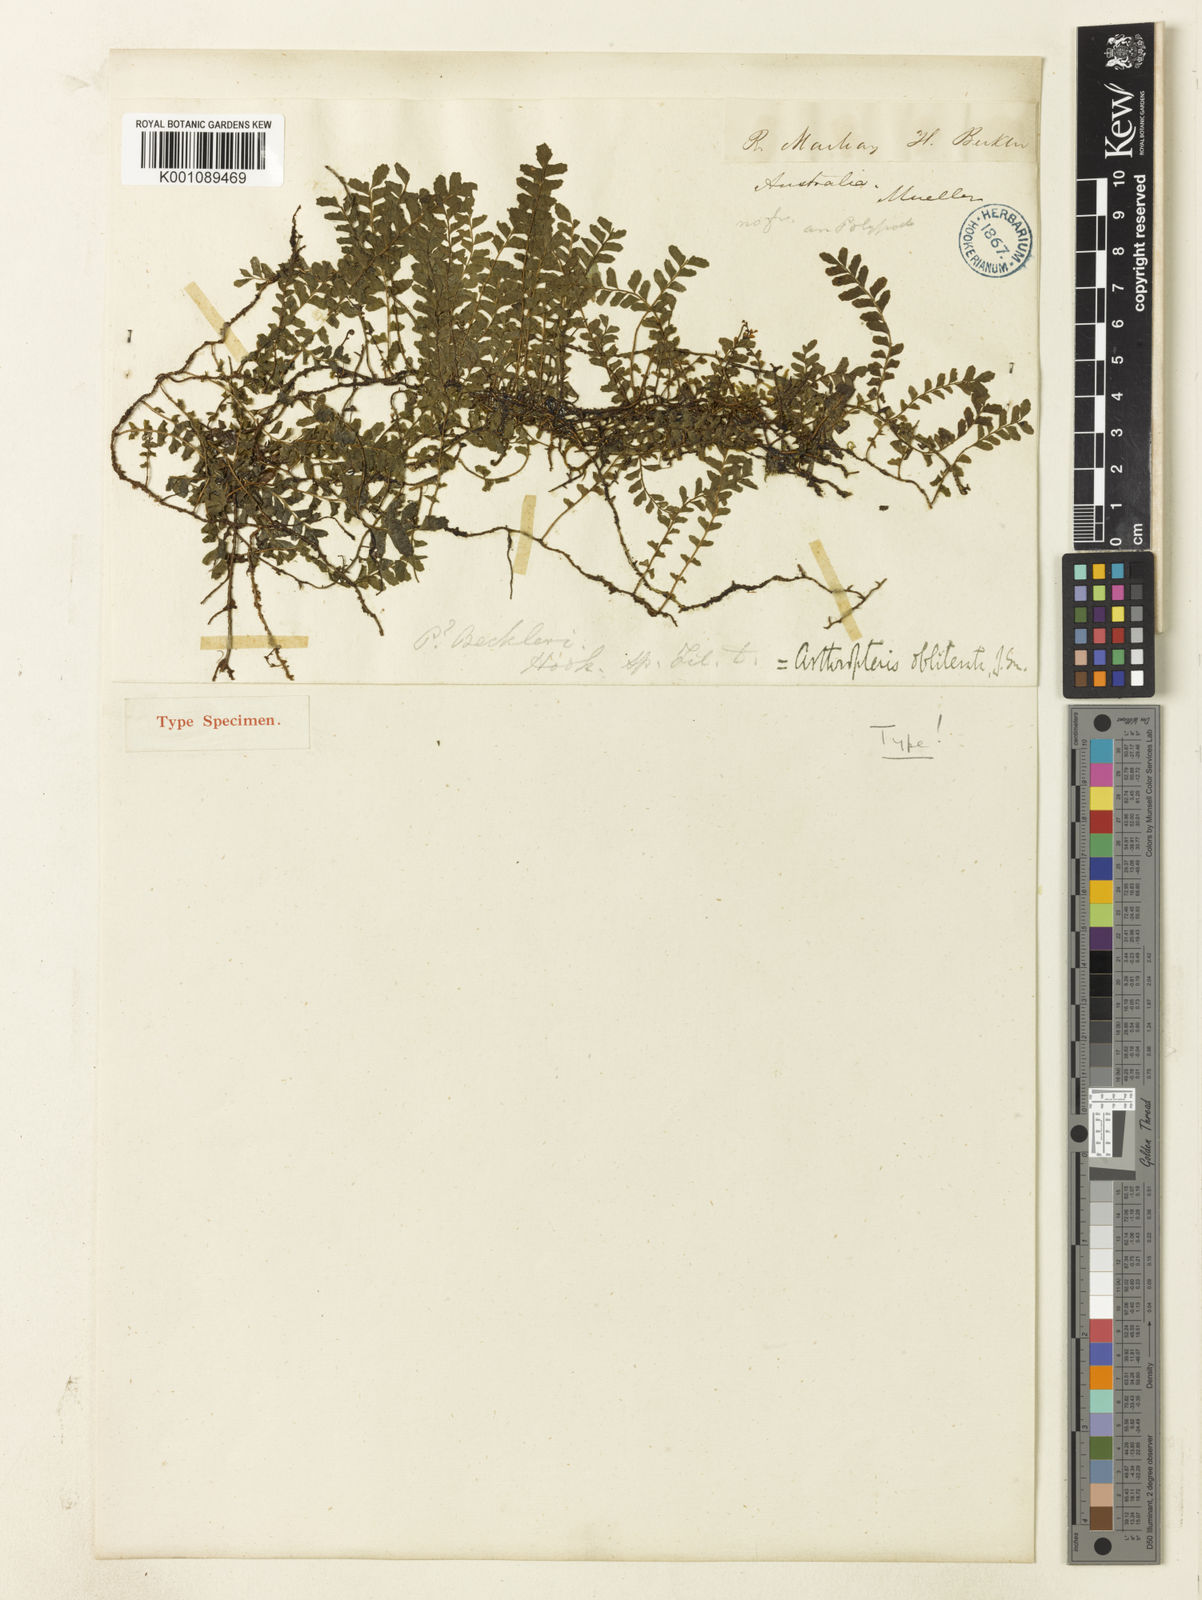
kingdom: Plantae
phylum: Tracheophyta
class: Polypodiopsida
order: Polypodiales
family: Tectariaceae
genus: Arthropteris
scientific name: Arthropteris beckleri
